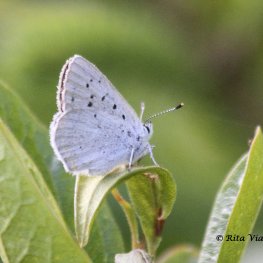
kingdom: Animalia
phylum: Arthropoda
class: Insecta
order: Lepidoptera
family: Sesiidae
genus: Sesia
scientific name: Sesia Lycaena epixanthe
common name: Bog Copper
